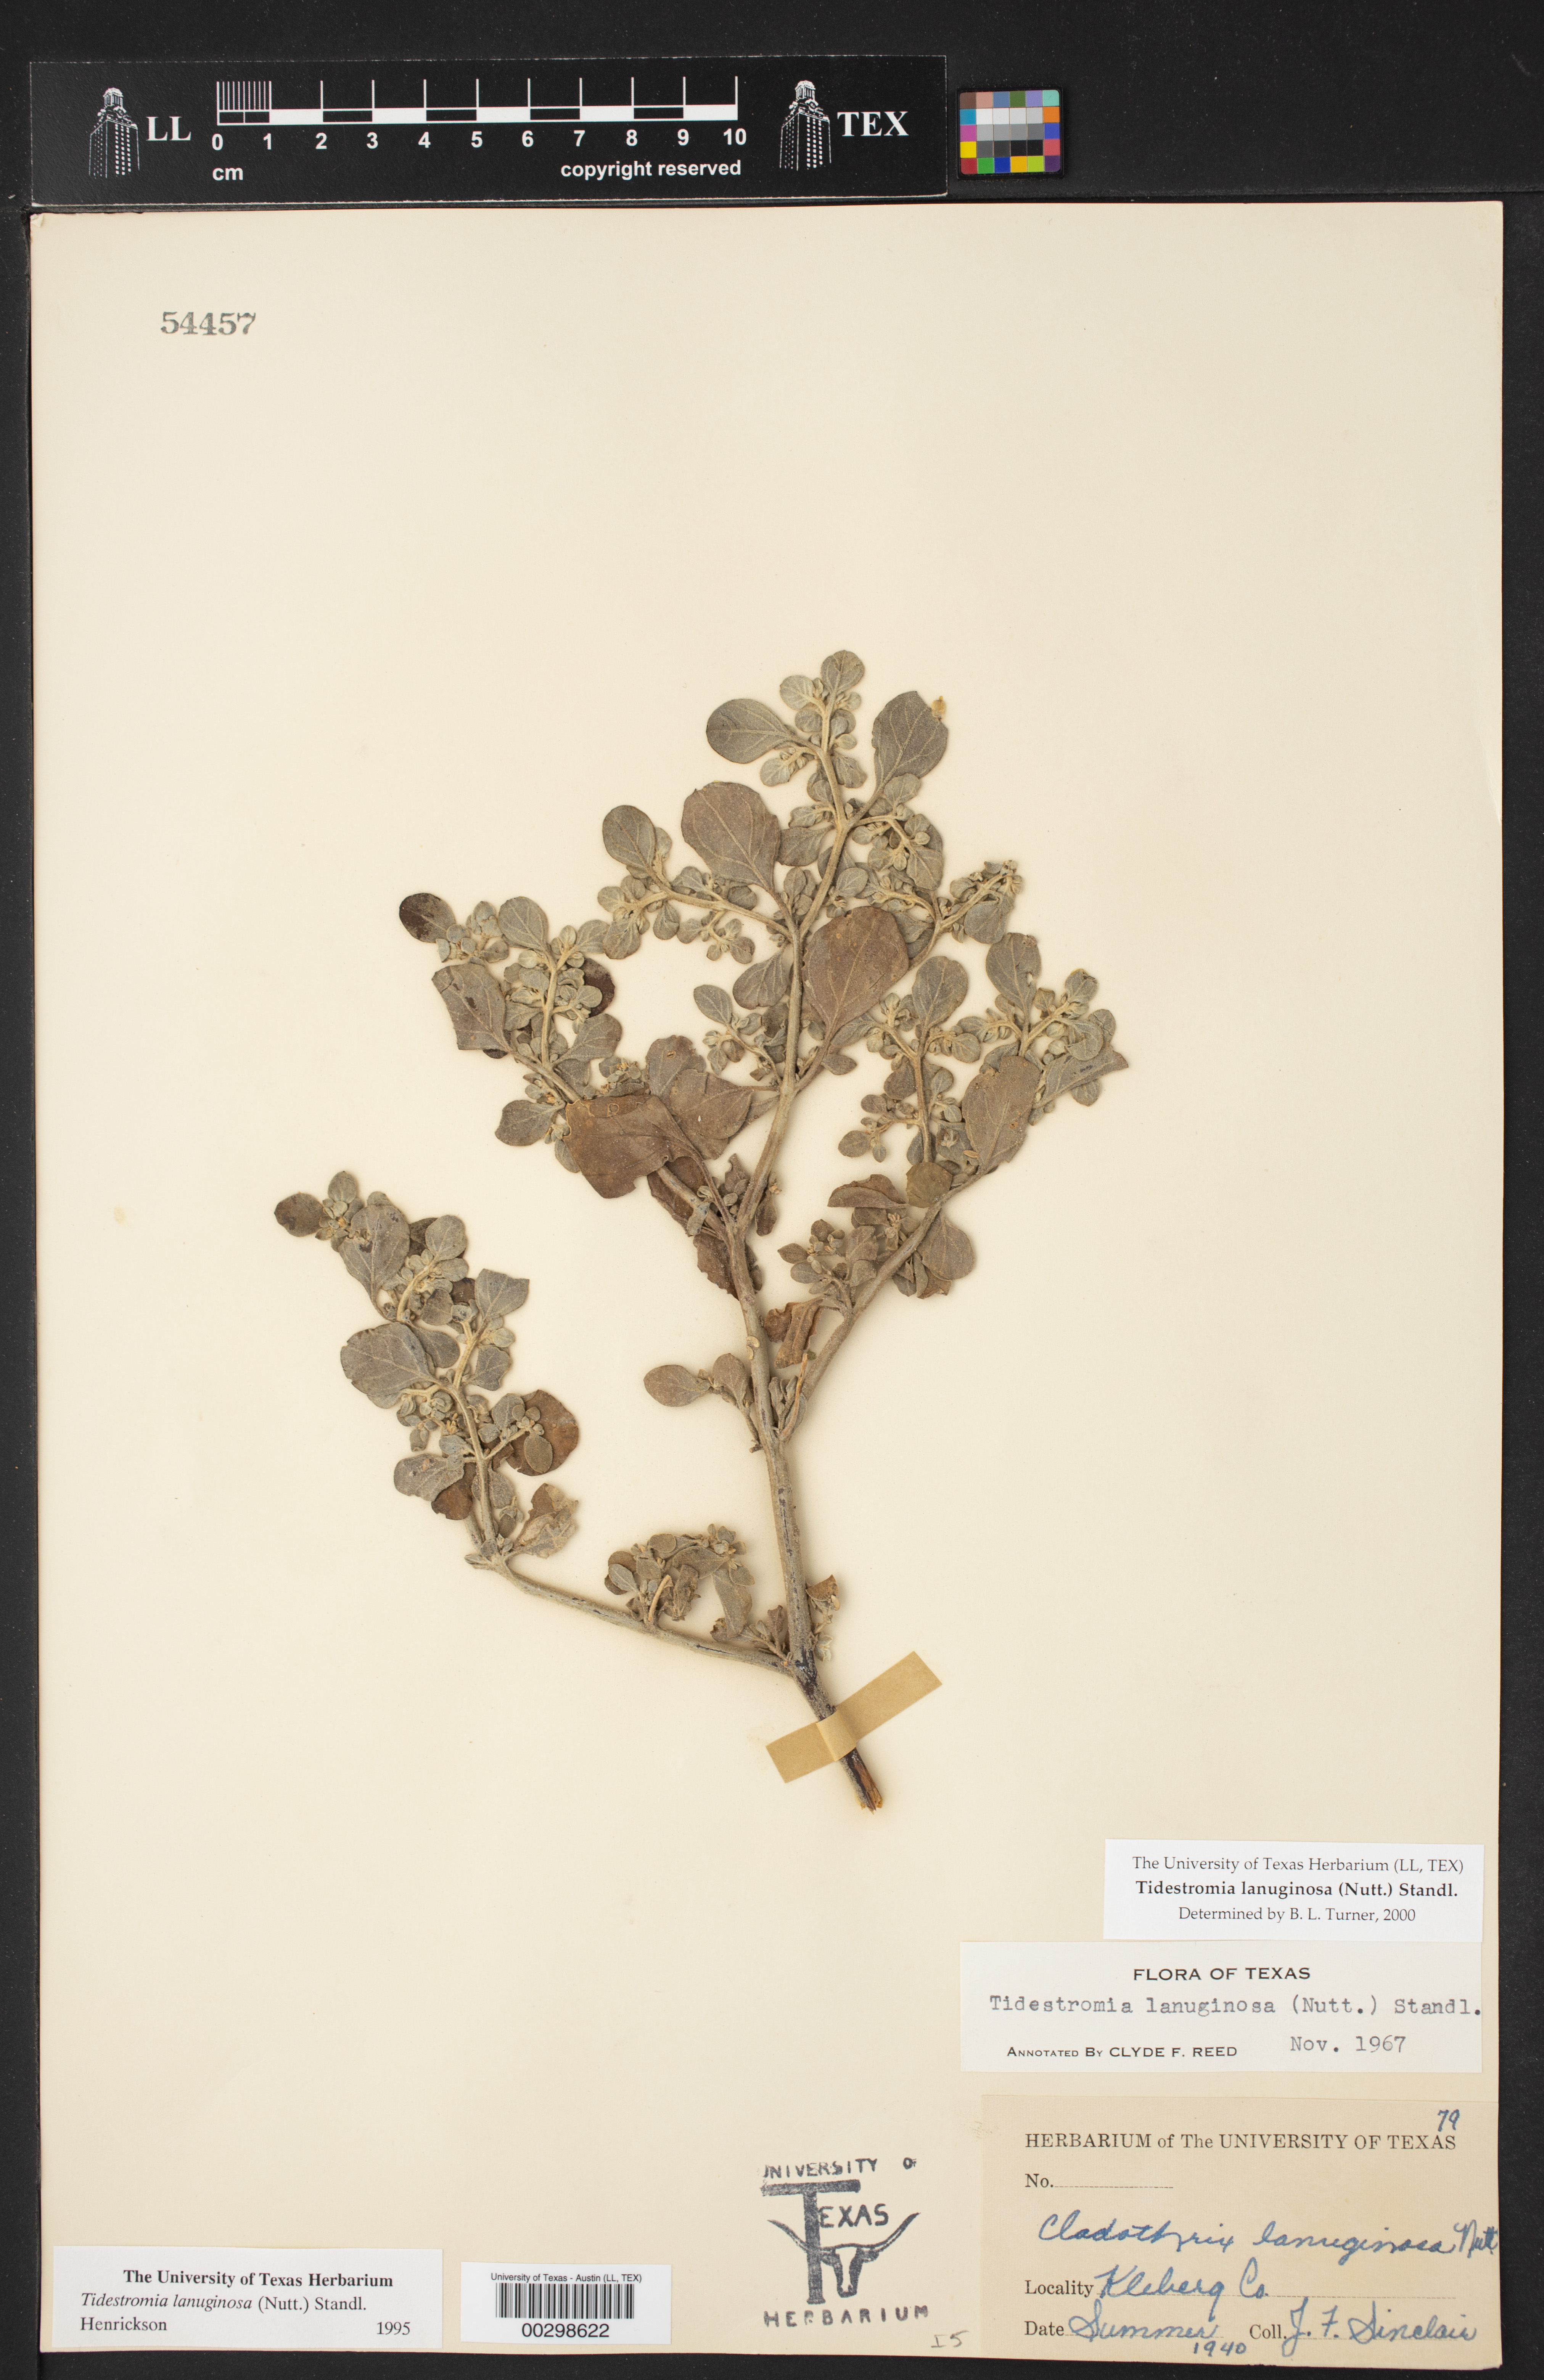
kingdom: Plantae
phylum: Tracheophyta
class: Magnoliopsida
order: Caryophyllales
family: Amaranthaceae
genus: Tidestromia
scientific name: Tidestromia lanuginosa
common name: Woolly tidestromia
